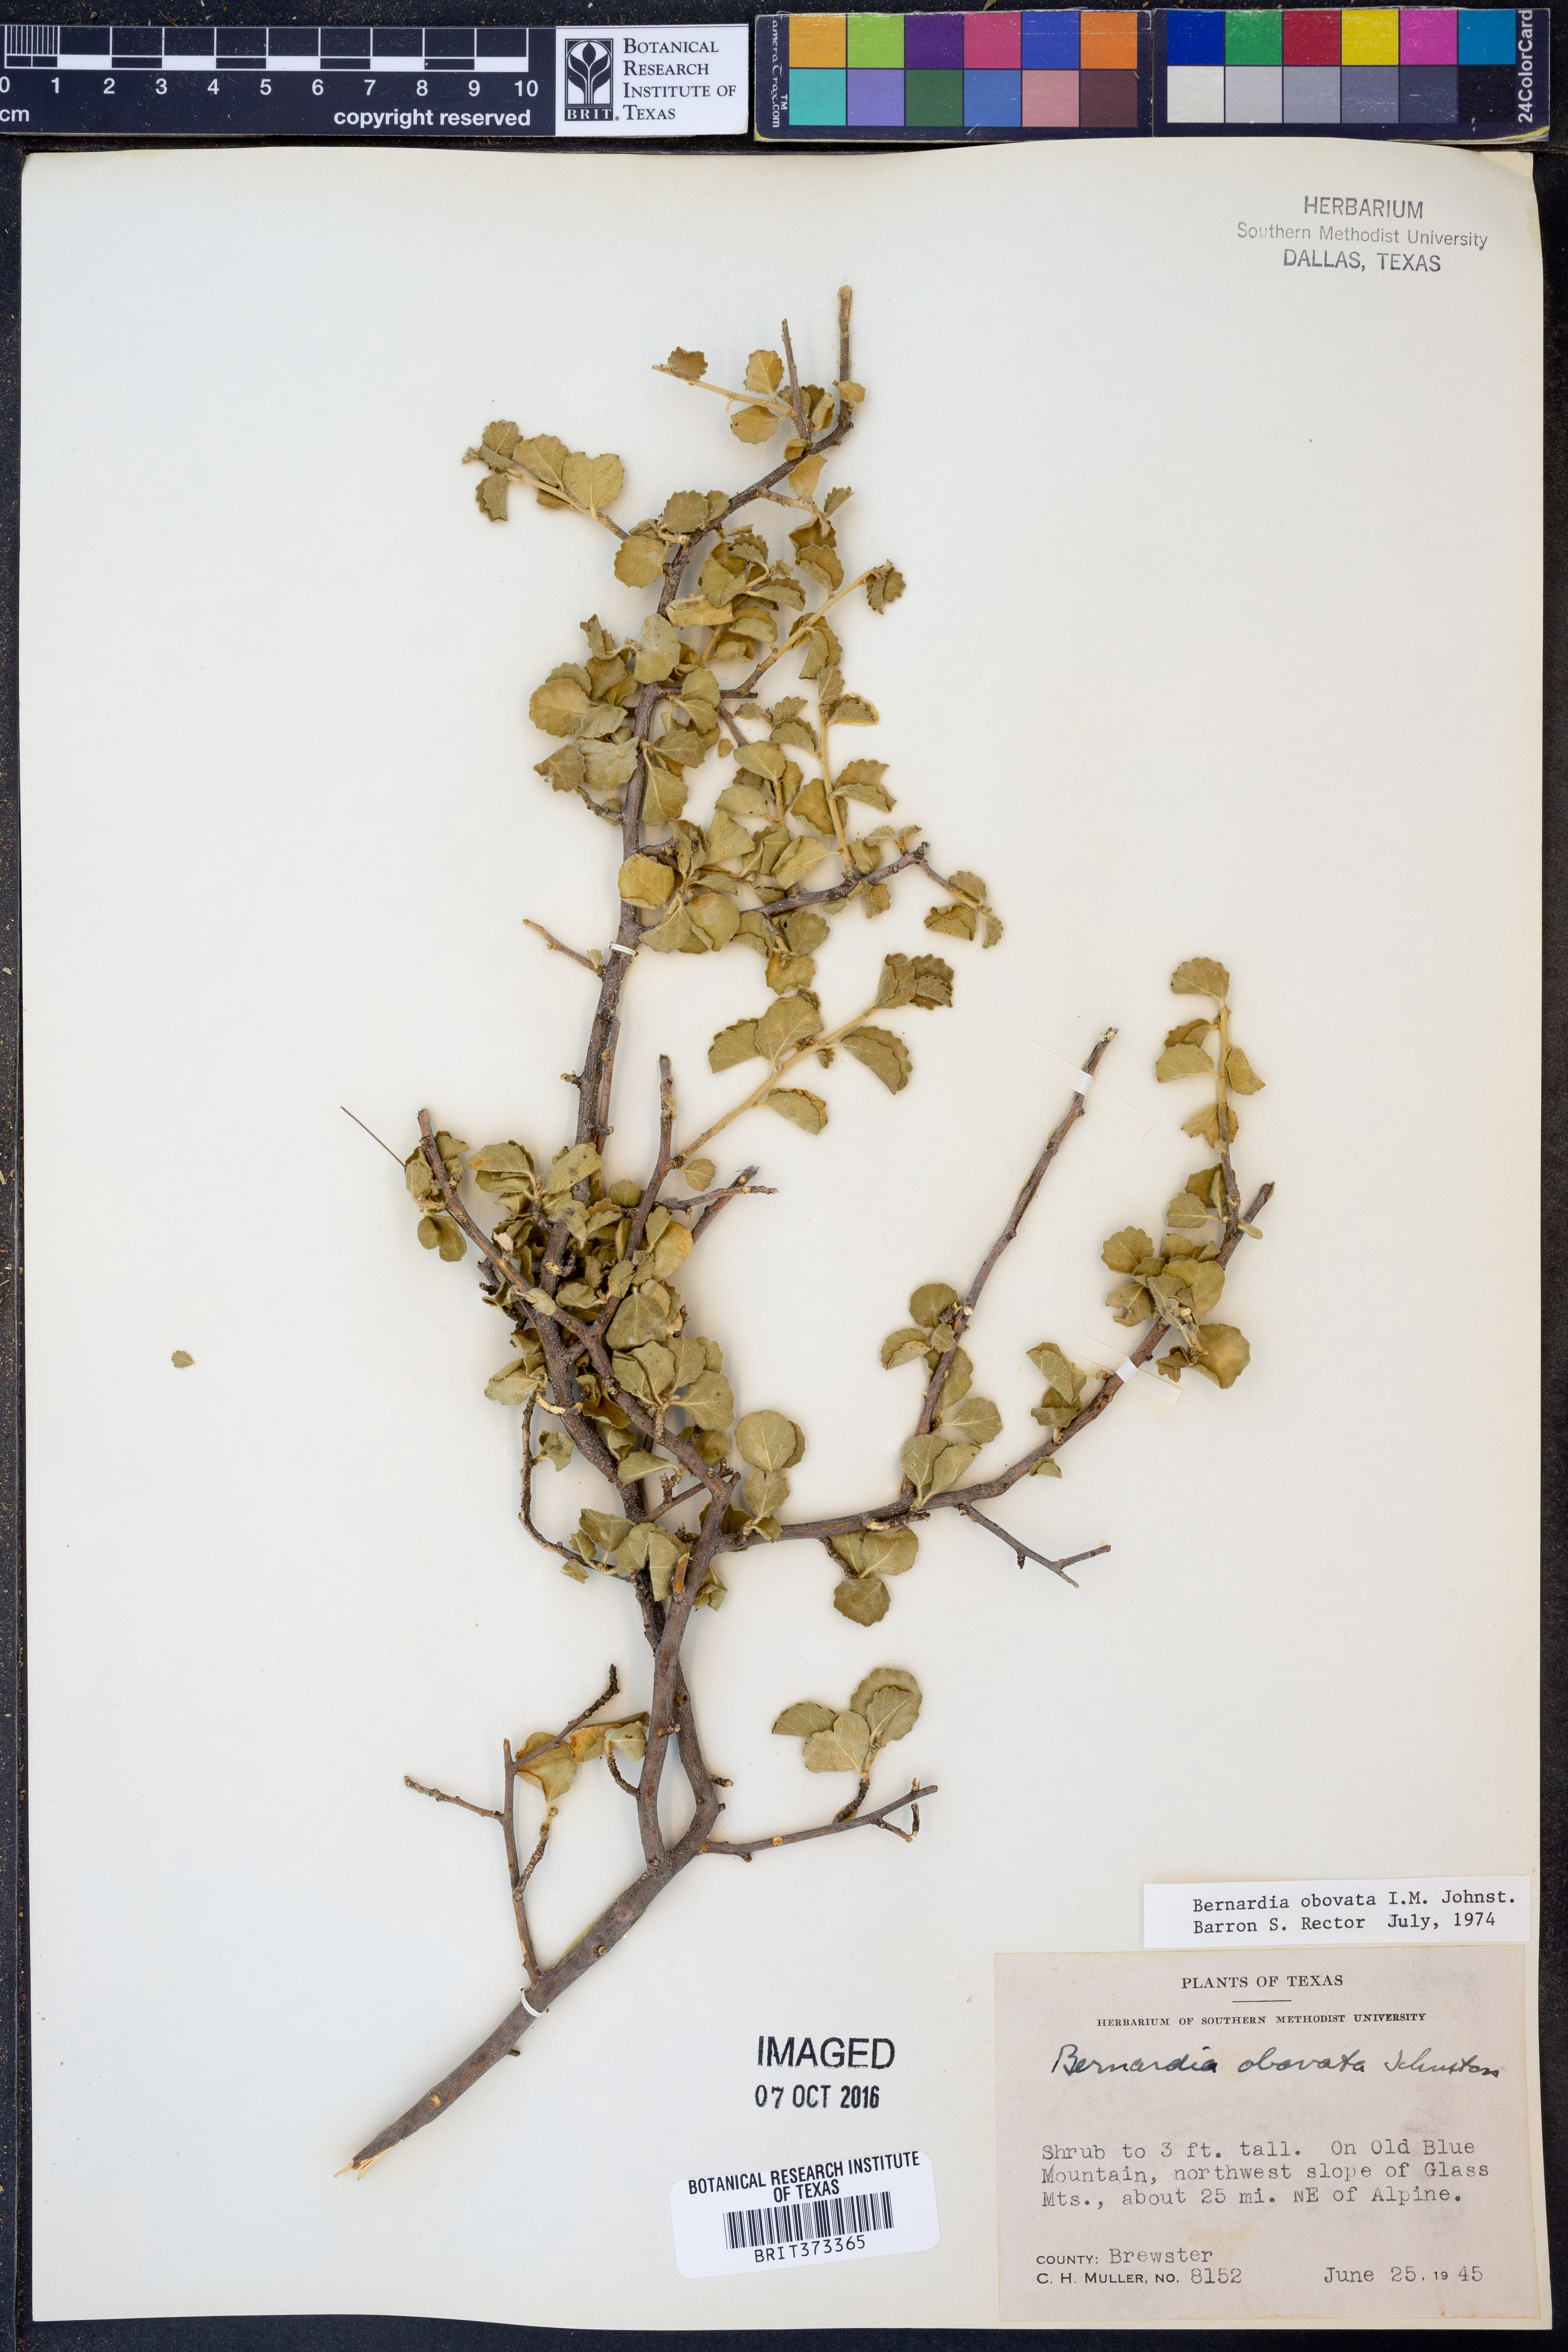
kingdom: Plantae
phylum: Tracheophyta
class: Magnoliopsida
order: Malpighiales
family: Euphorbiaceae
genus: Bernardia
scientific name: Bernardia obovata
